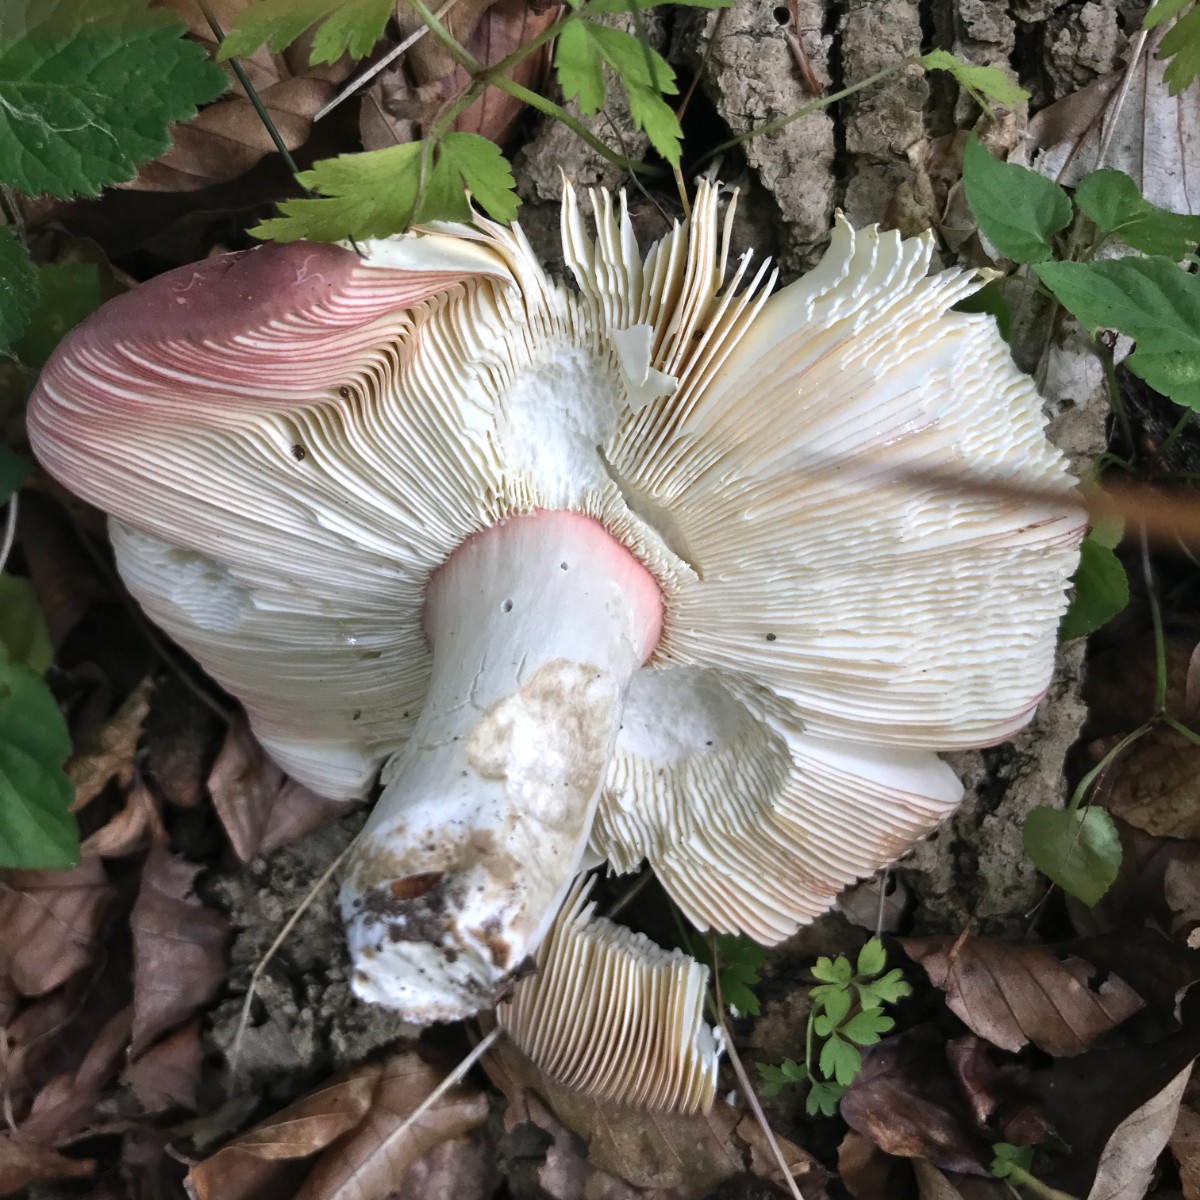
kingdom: Fungi
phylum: Basidiomycota
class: Agaricomycetes
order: Russulales
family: Russulaceae
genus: Russula
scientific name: Russula olivacea
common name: stor skørhat
